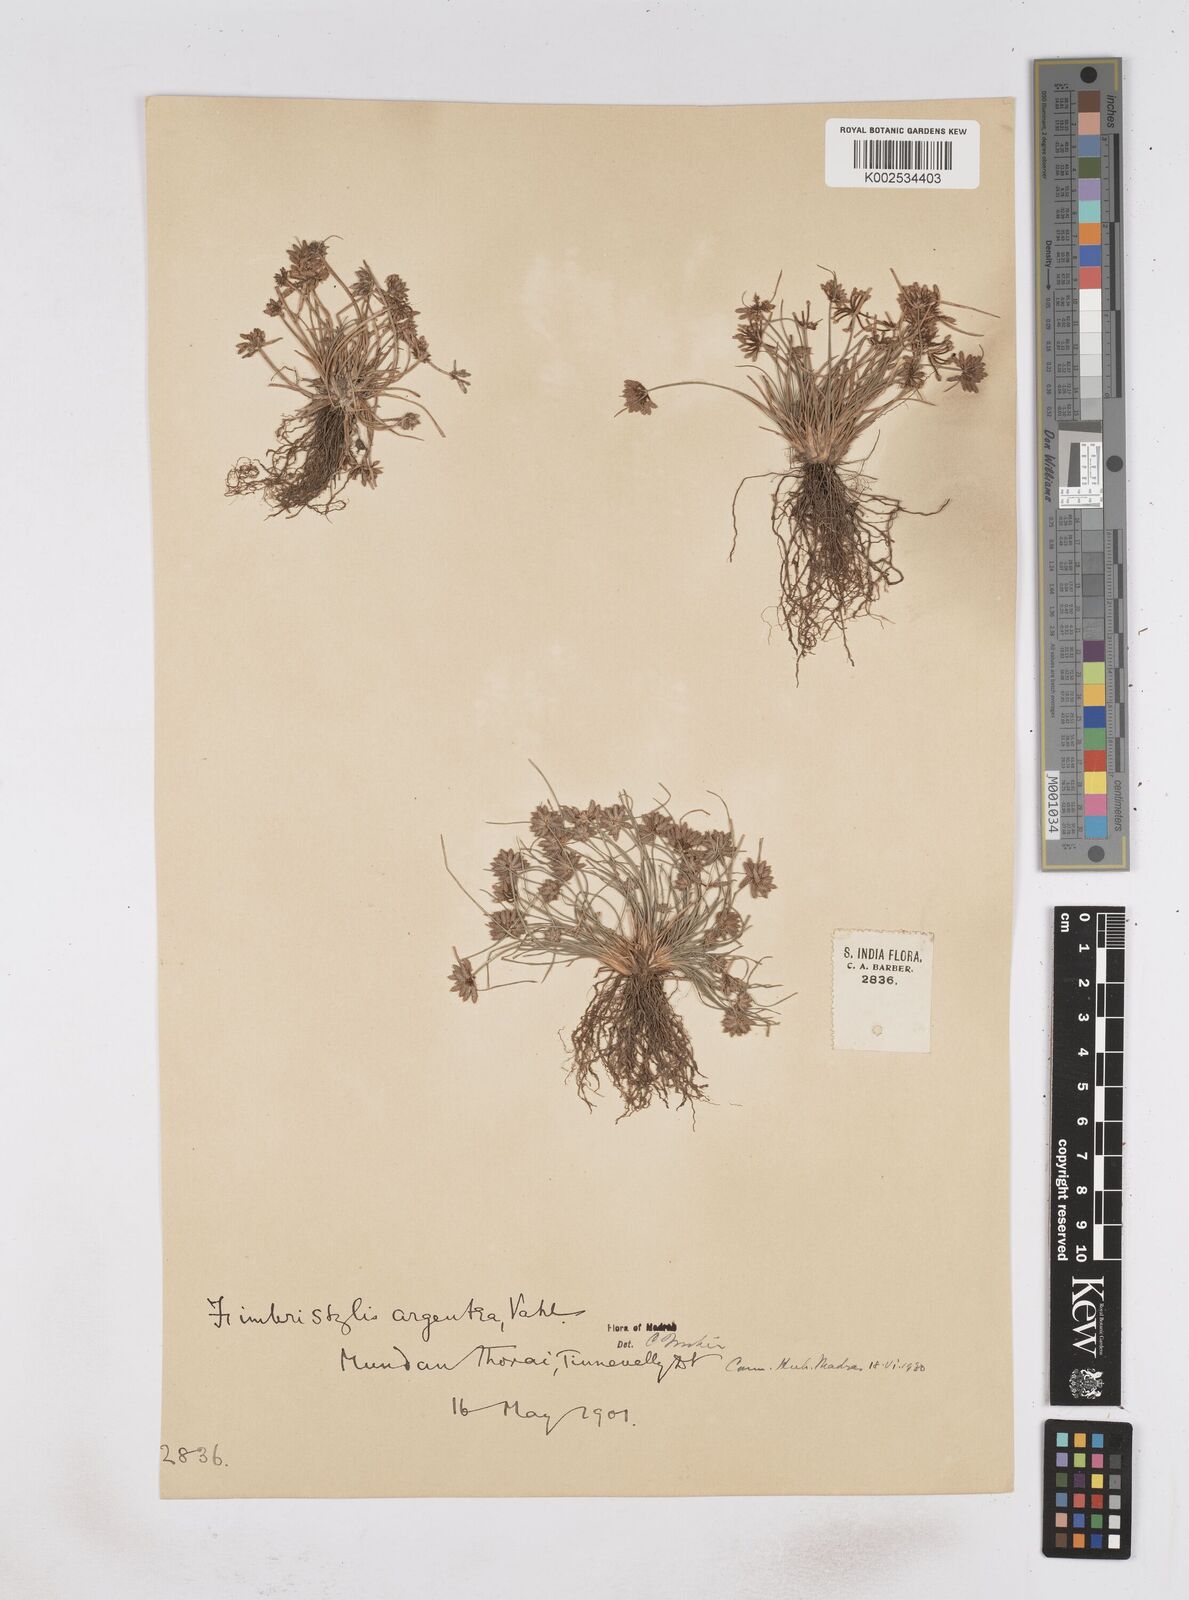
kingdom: Plantae
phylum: Tracheophyta
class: Liliopsida
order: Poales
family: Cyperaceae
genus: Fimbristylis
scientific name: Fimbristylis argentea
